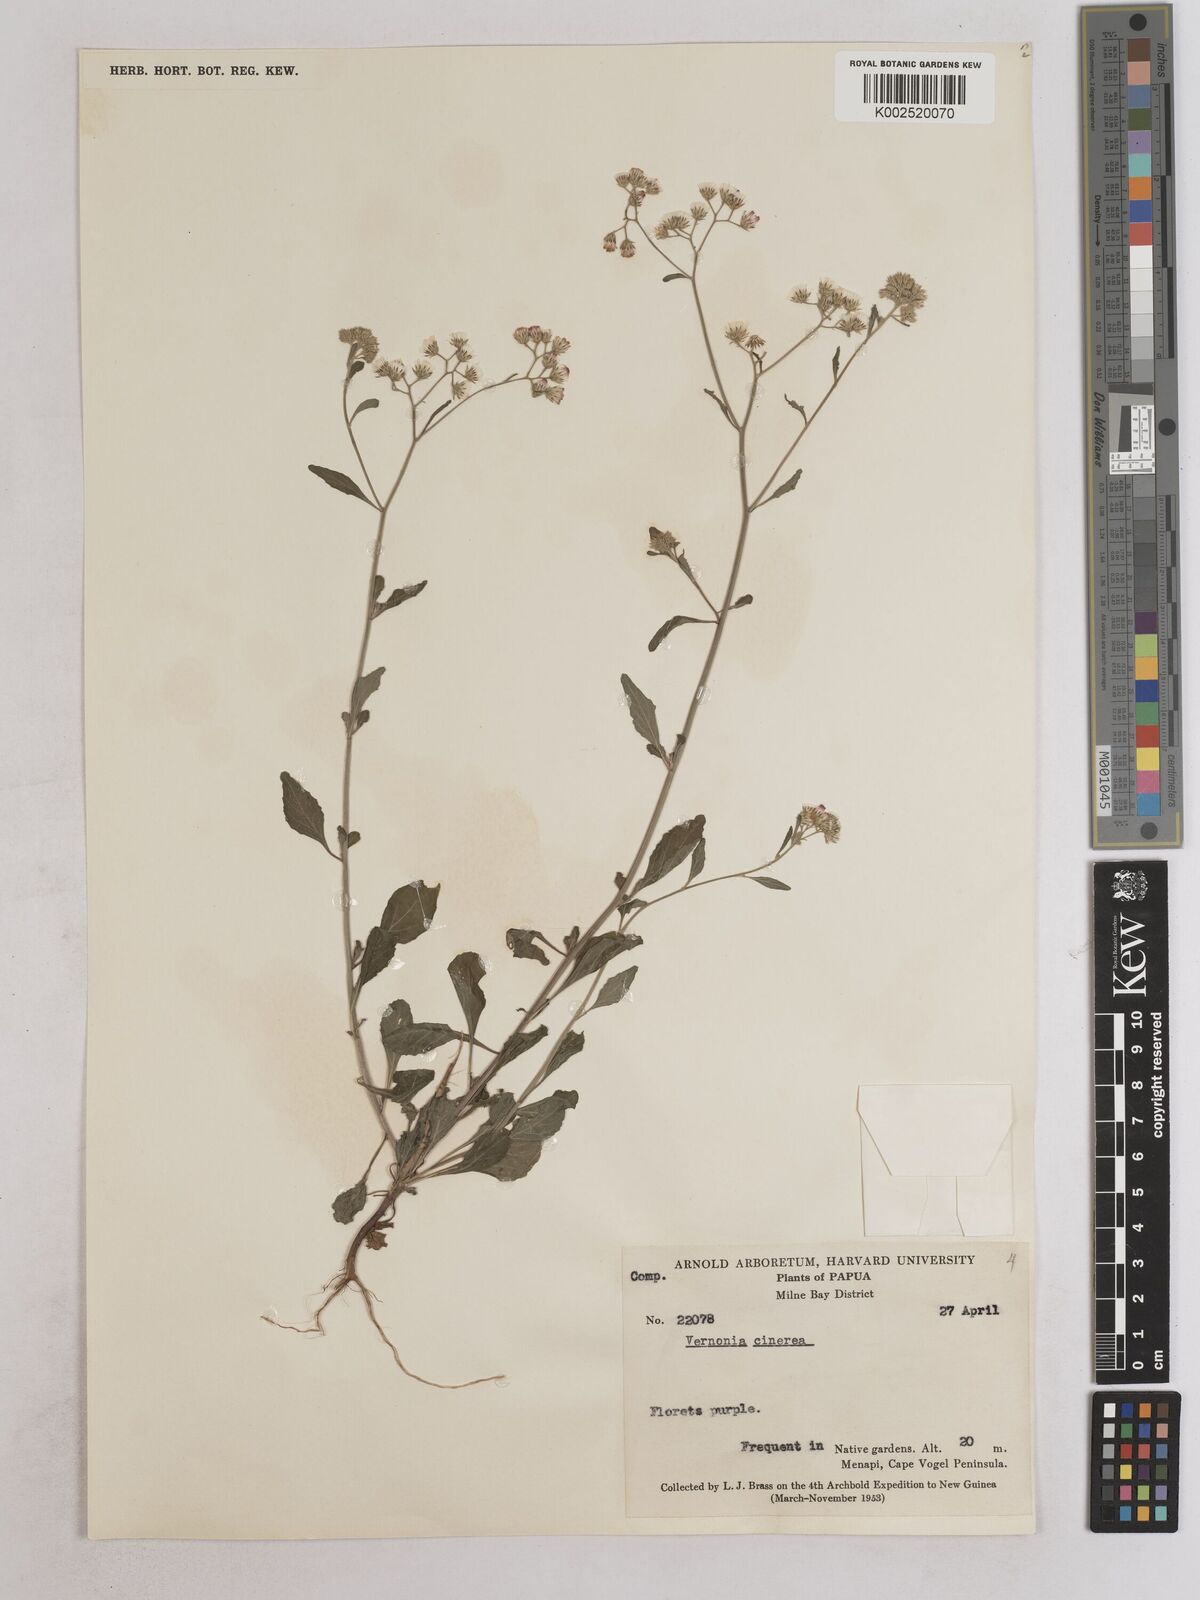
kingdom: Plantae
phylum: Tracheophyta
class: Magnoliopsida
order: Asterales
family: Asteraceae
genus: Cyanthillium
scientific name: Cyanthillium cinereum
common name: Little ironweed
